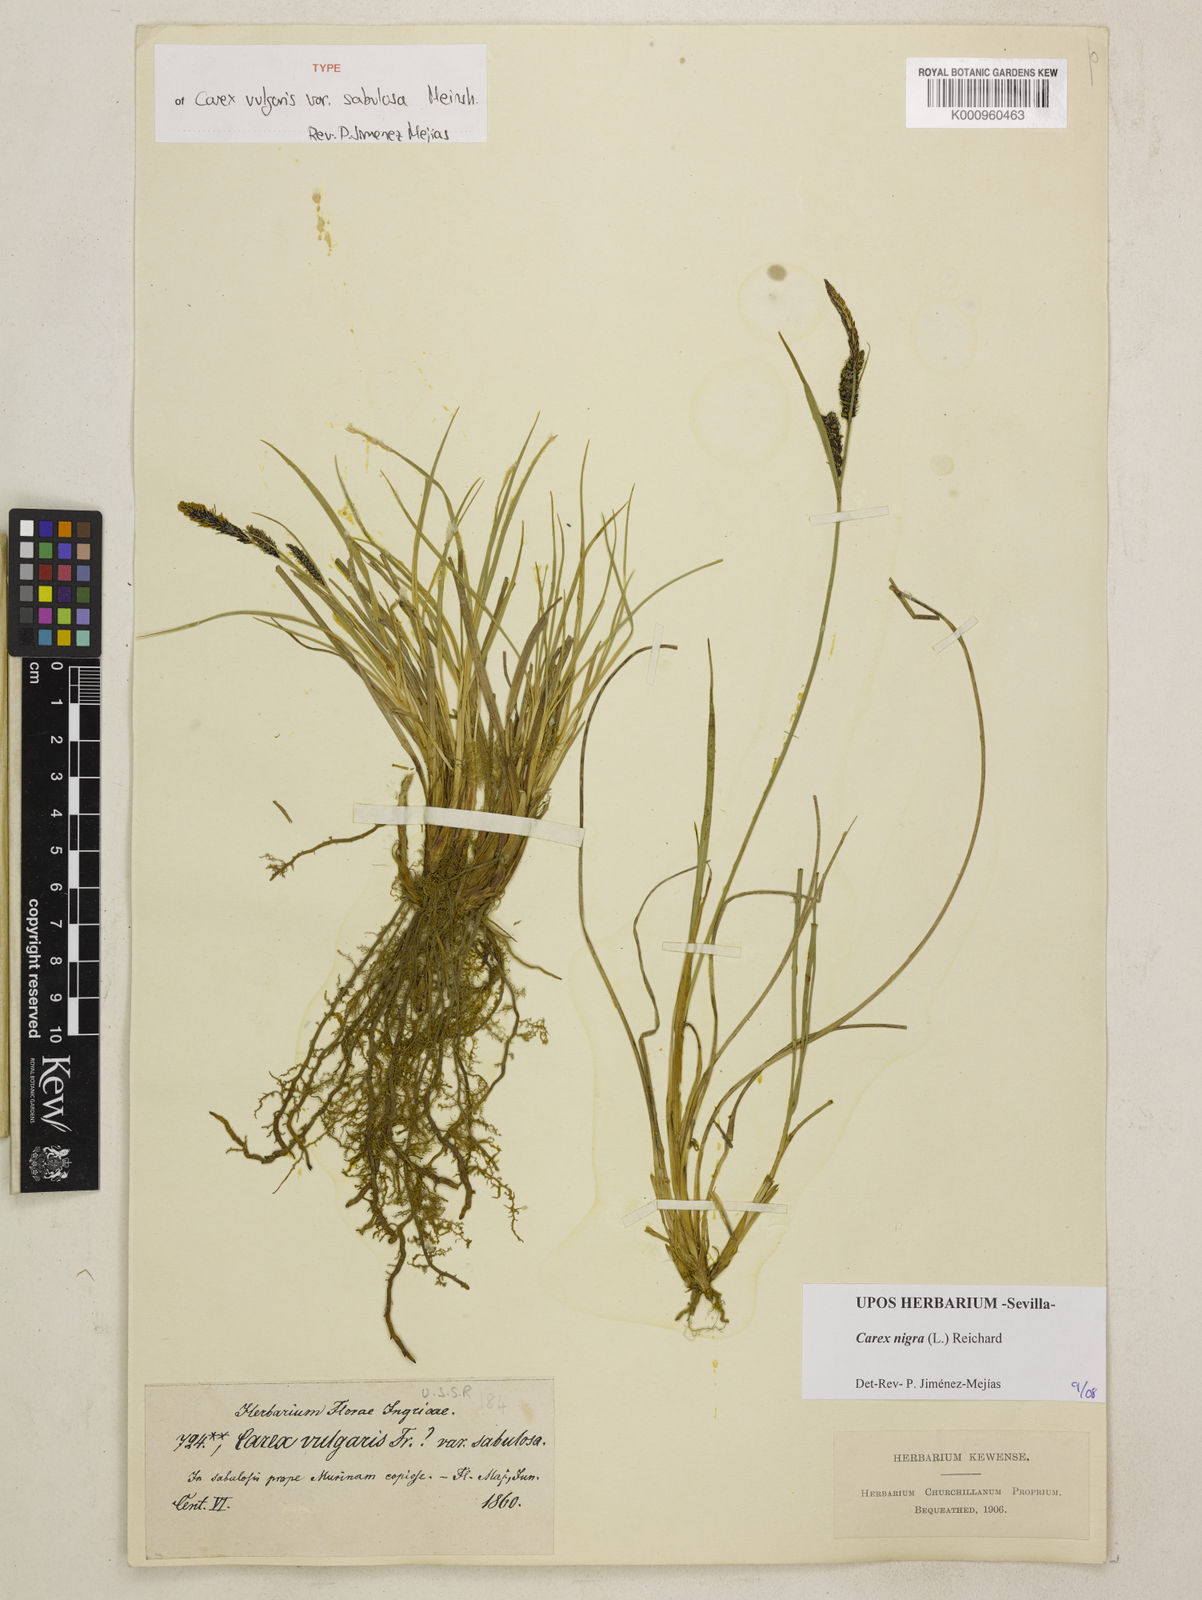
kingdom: Plantae
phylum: Tracheophyta
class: Liliopsida
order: Poales
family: Cyperaceae
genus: Carex
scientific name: Carex nigra
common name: Common sedge
